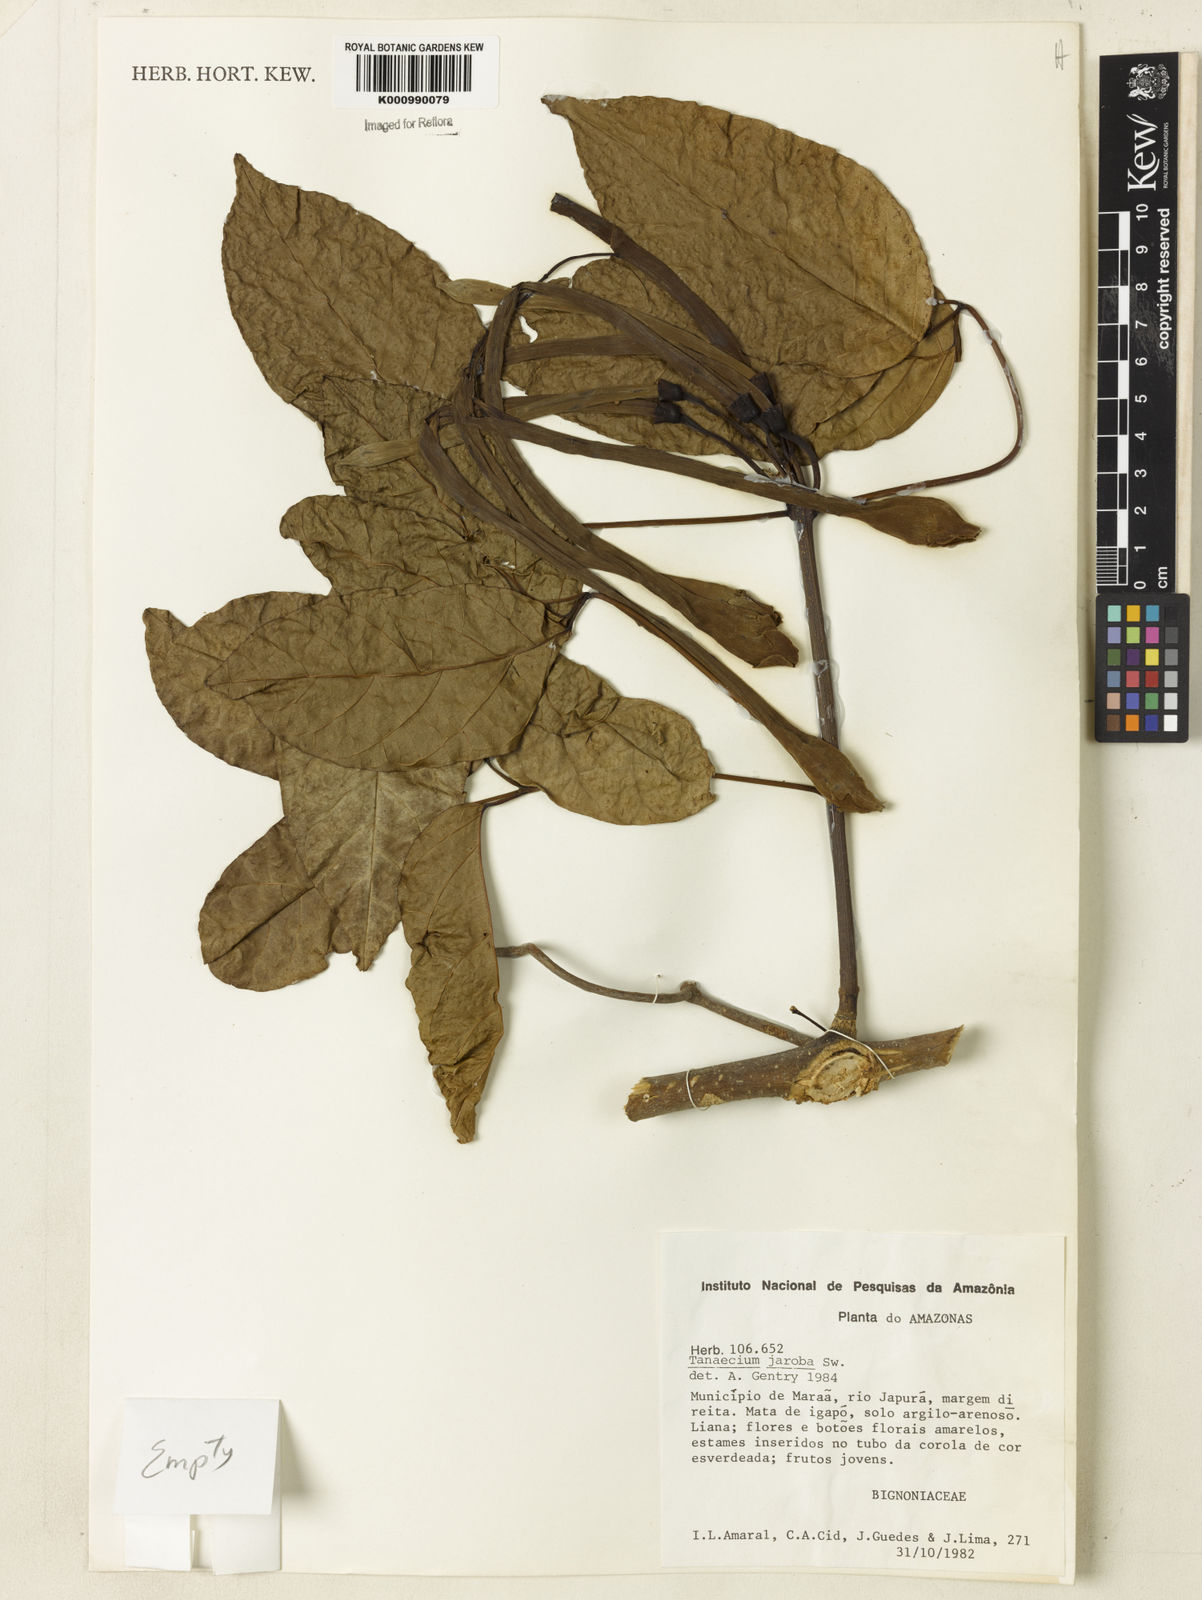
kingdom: Plantae
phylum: Tracheophyta
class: Magnoliopsida
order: Lamiales
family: Bignoniaceae
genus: Tanaecium
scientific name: Tanaecium jaroba
